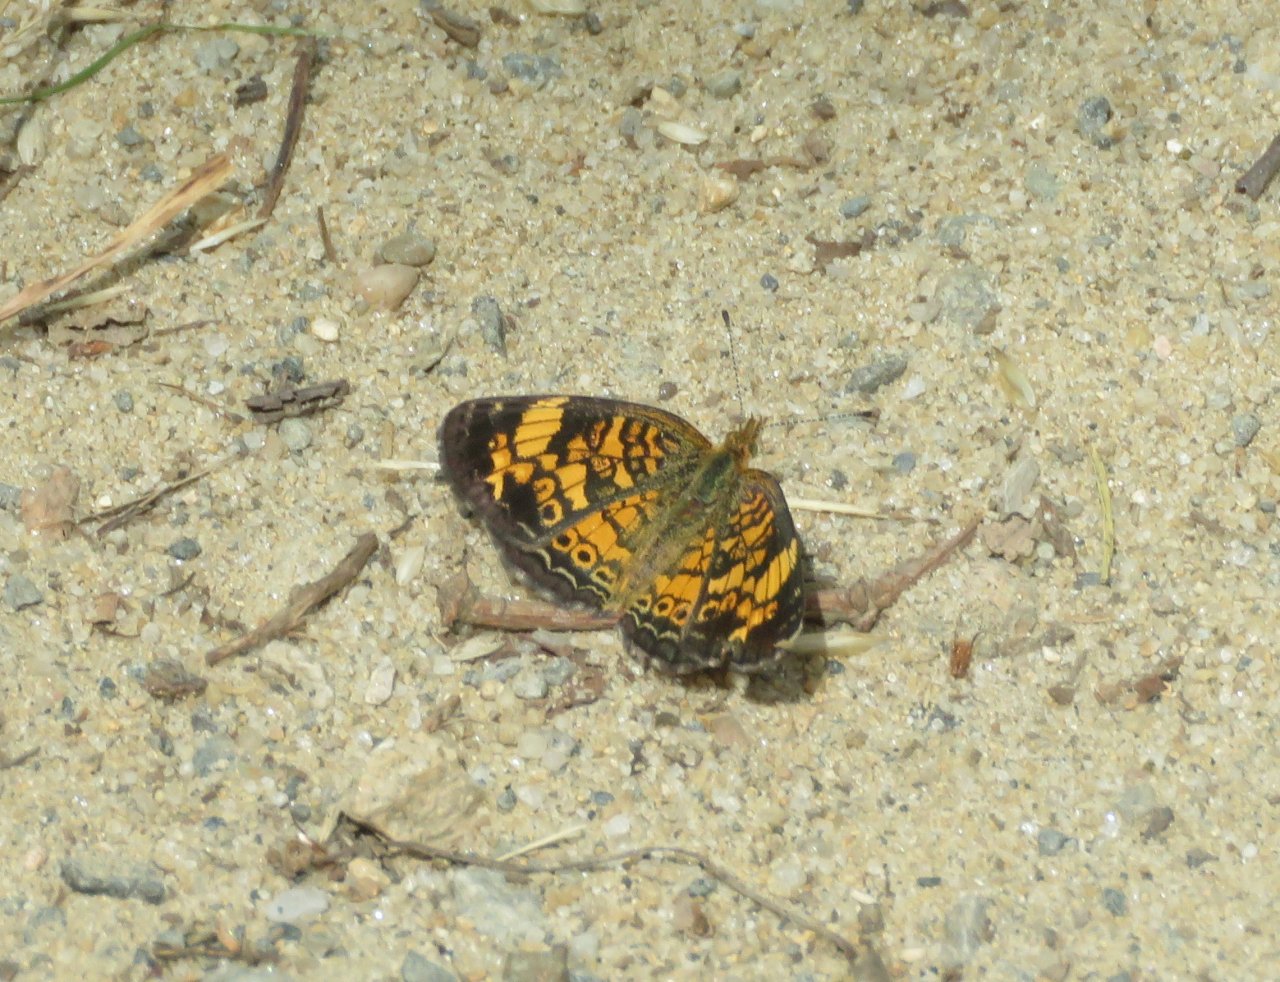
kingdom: Animalia
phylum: Arthropoda
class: Insecta
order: Lepidoptera
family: Nymphalidae
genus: Phyciodes
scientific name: Phyciodes tharos
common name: Pearl Crescent
